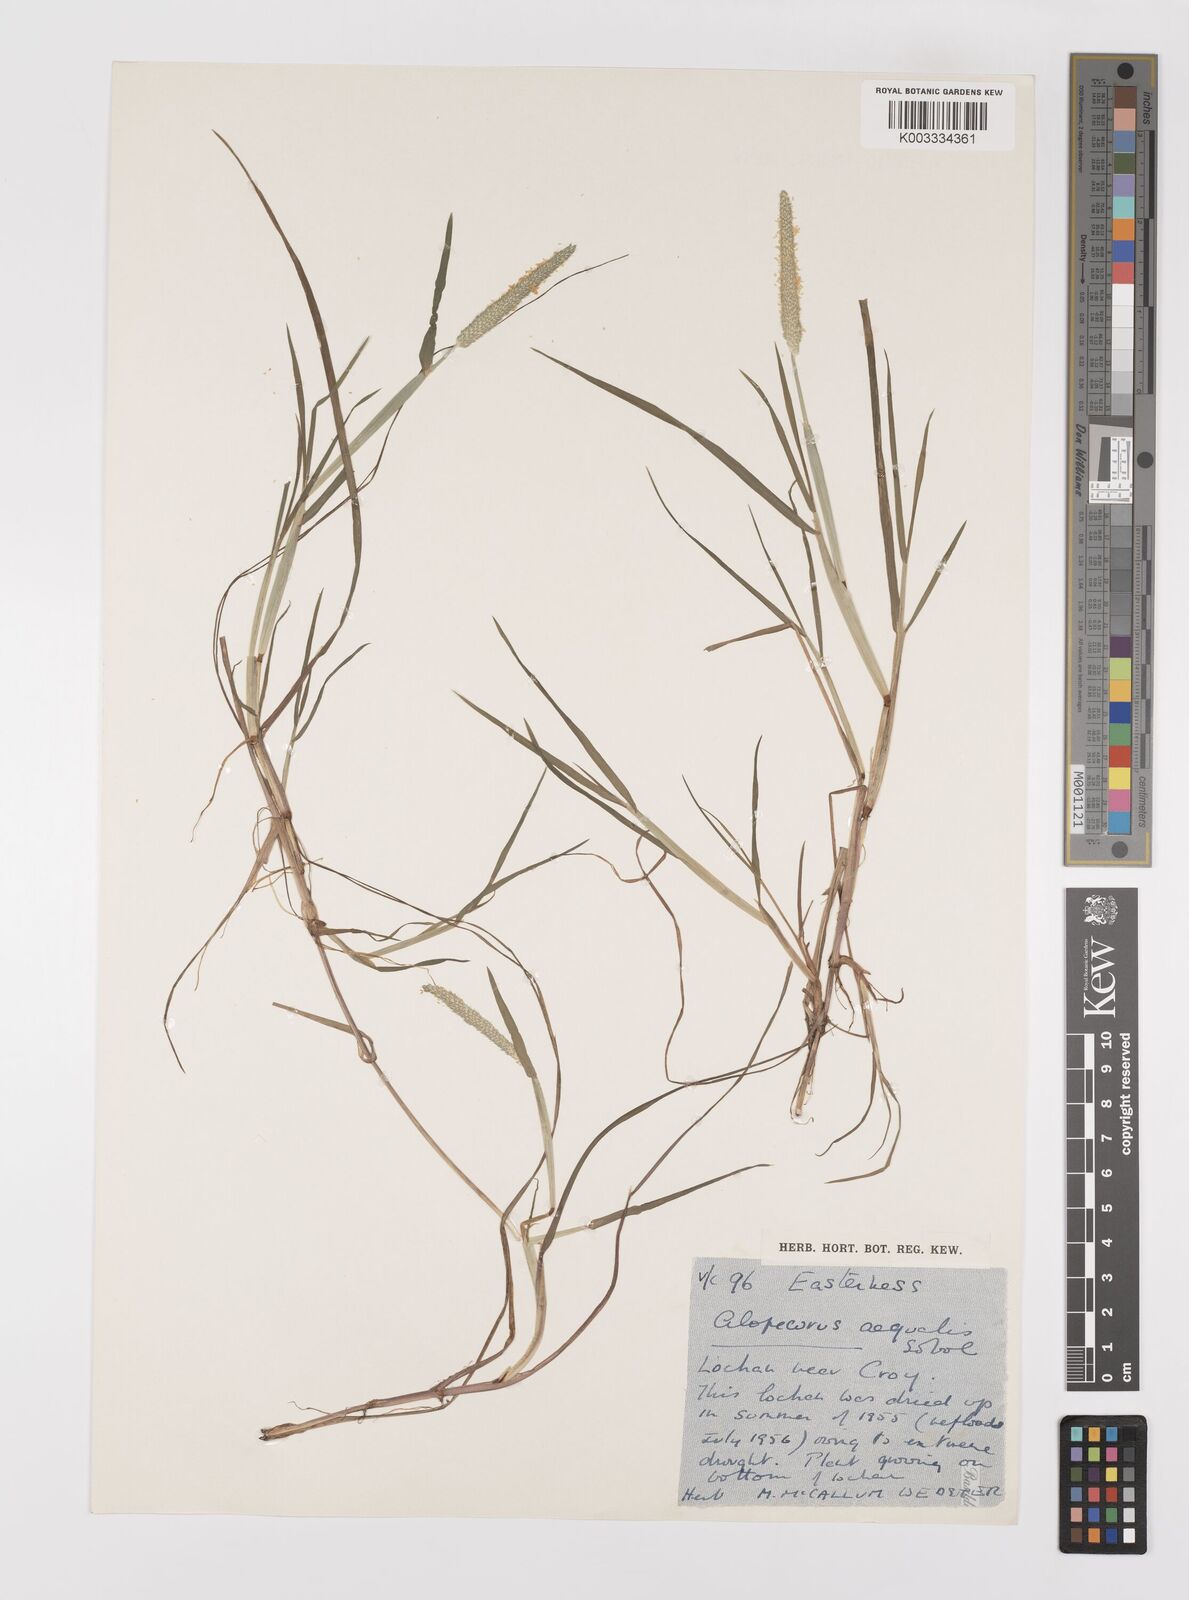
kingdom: Plantae
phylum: Tracheophyta
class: Liliopsida
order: Poales
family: Poaceae
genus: Alopecurus
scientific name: Alopecurus aequalis
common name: Orange foxtail
